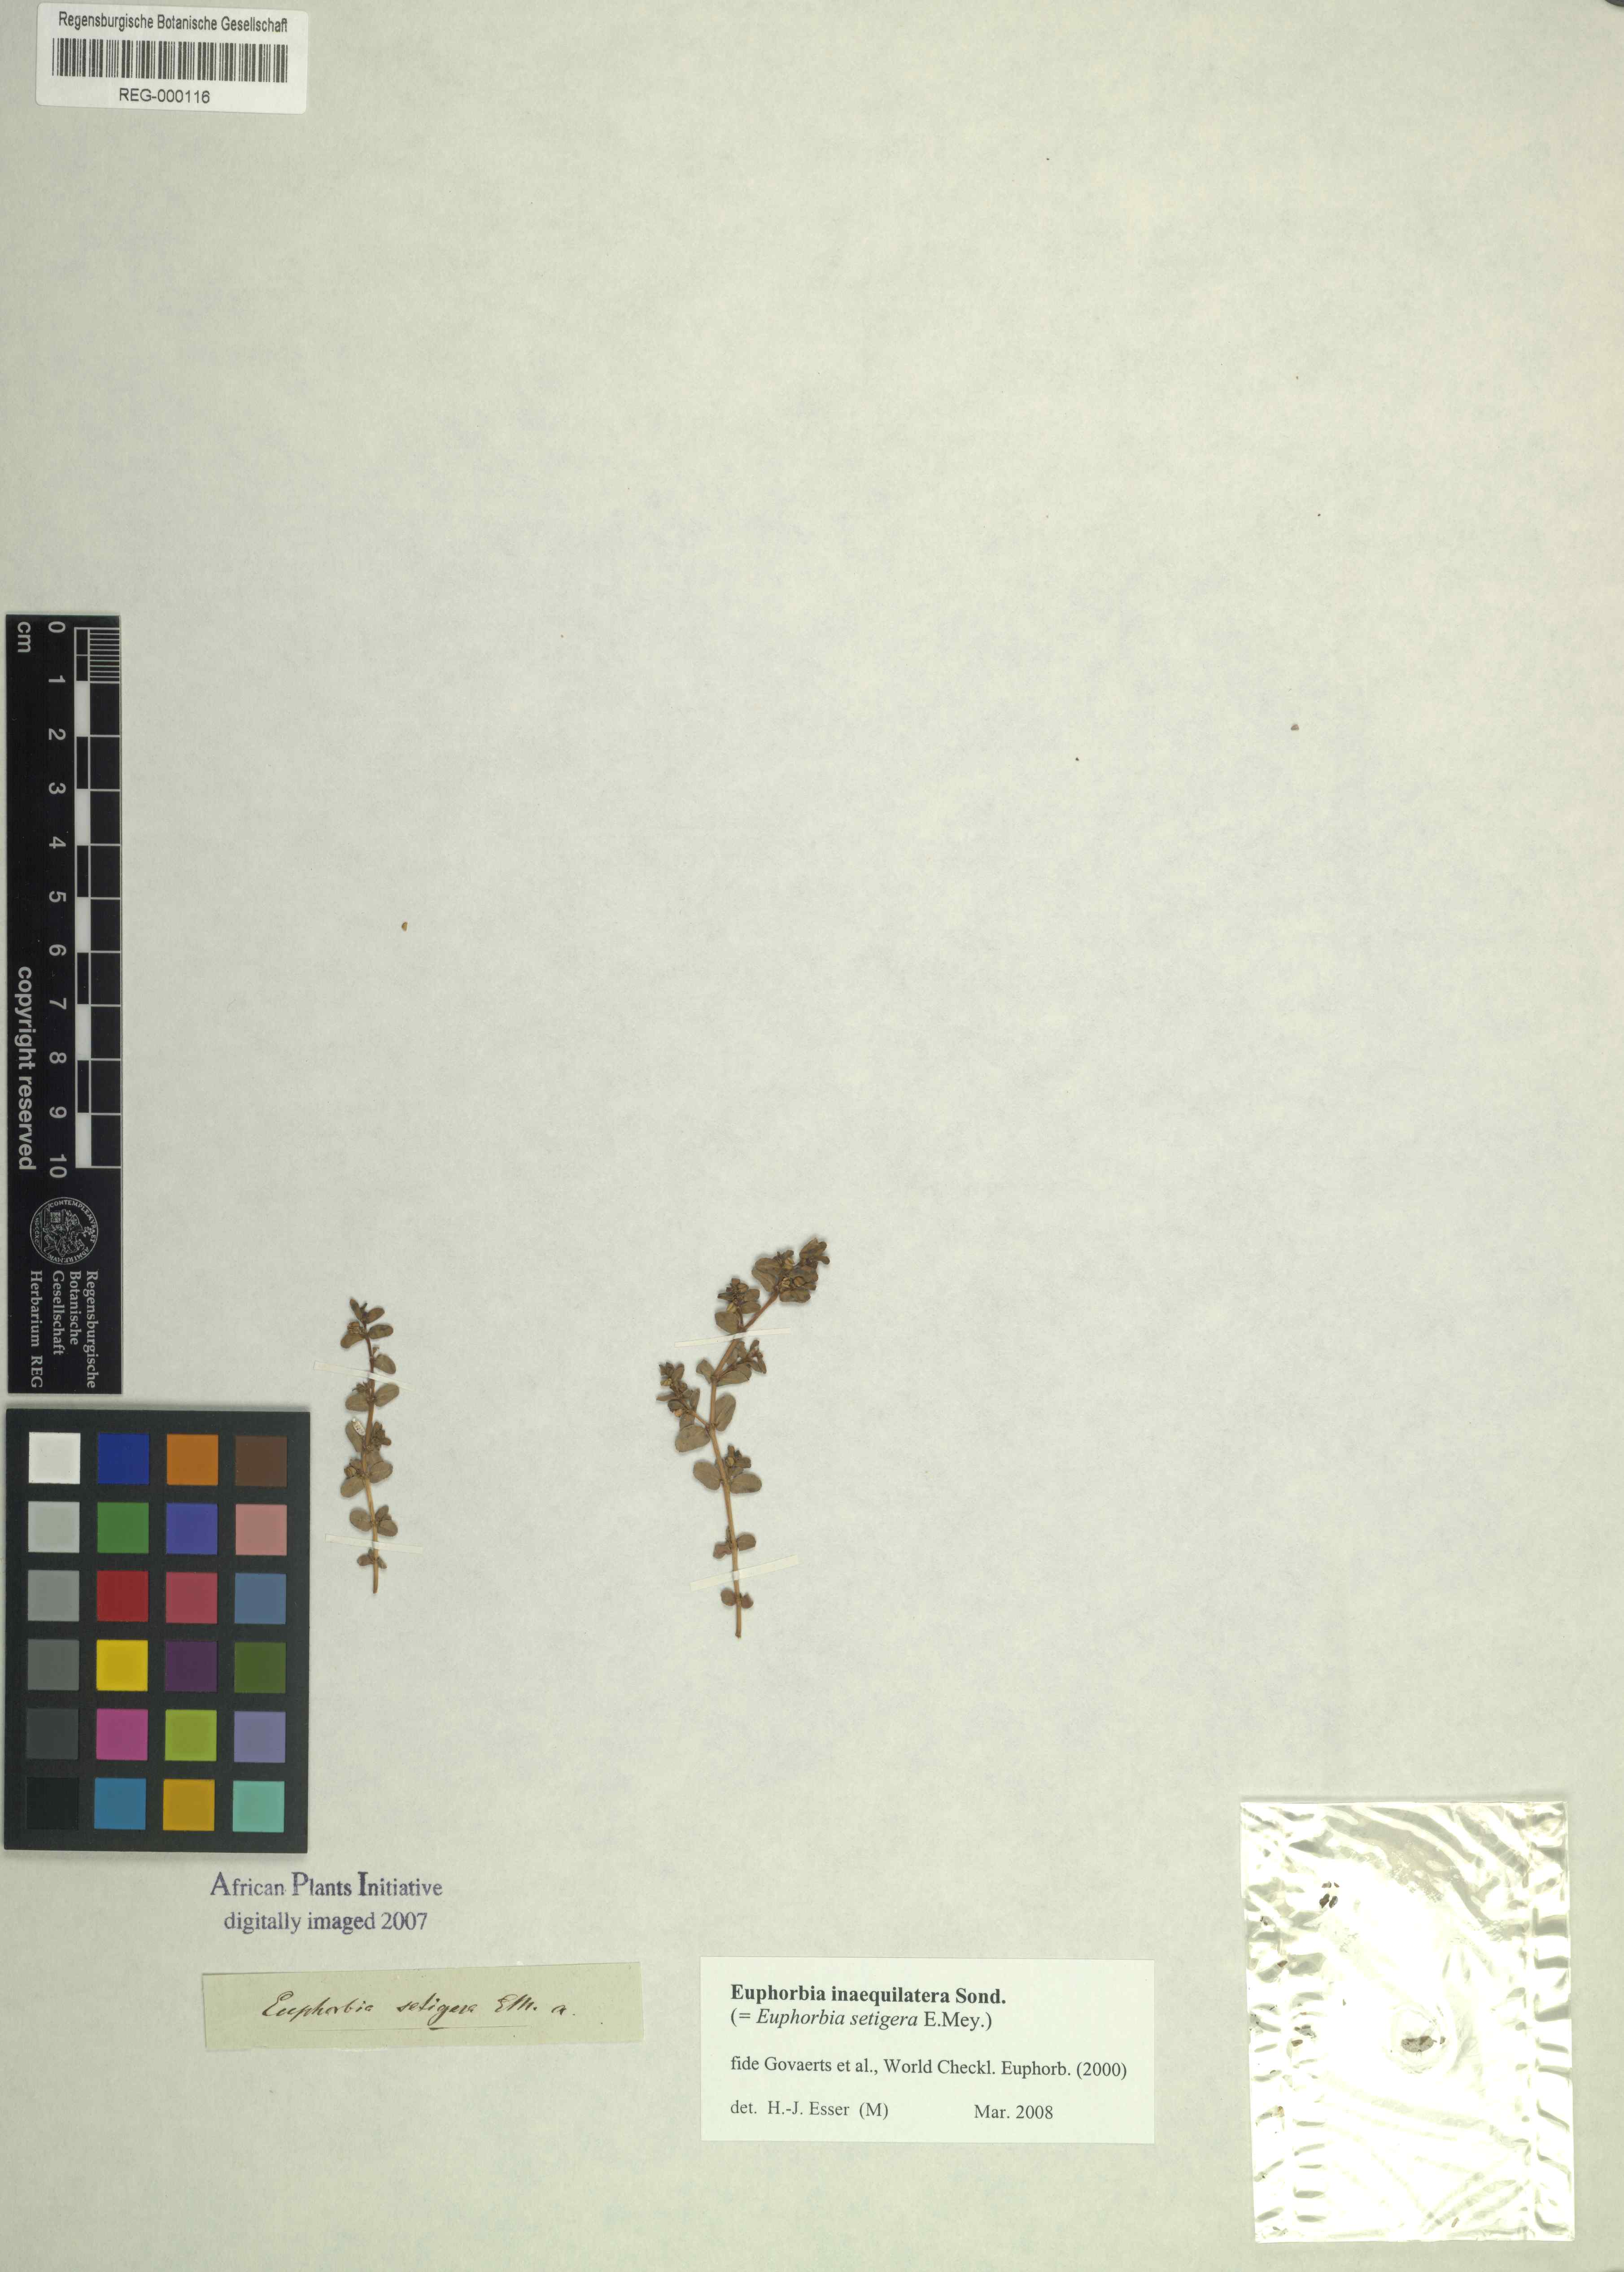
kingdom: Plantae
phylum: Tracheophyta
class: Magnoliopsida
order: Malpighiales
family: Euphorbiaceae
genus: Euphorbia
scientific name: Euphorbia inaequilatera
